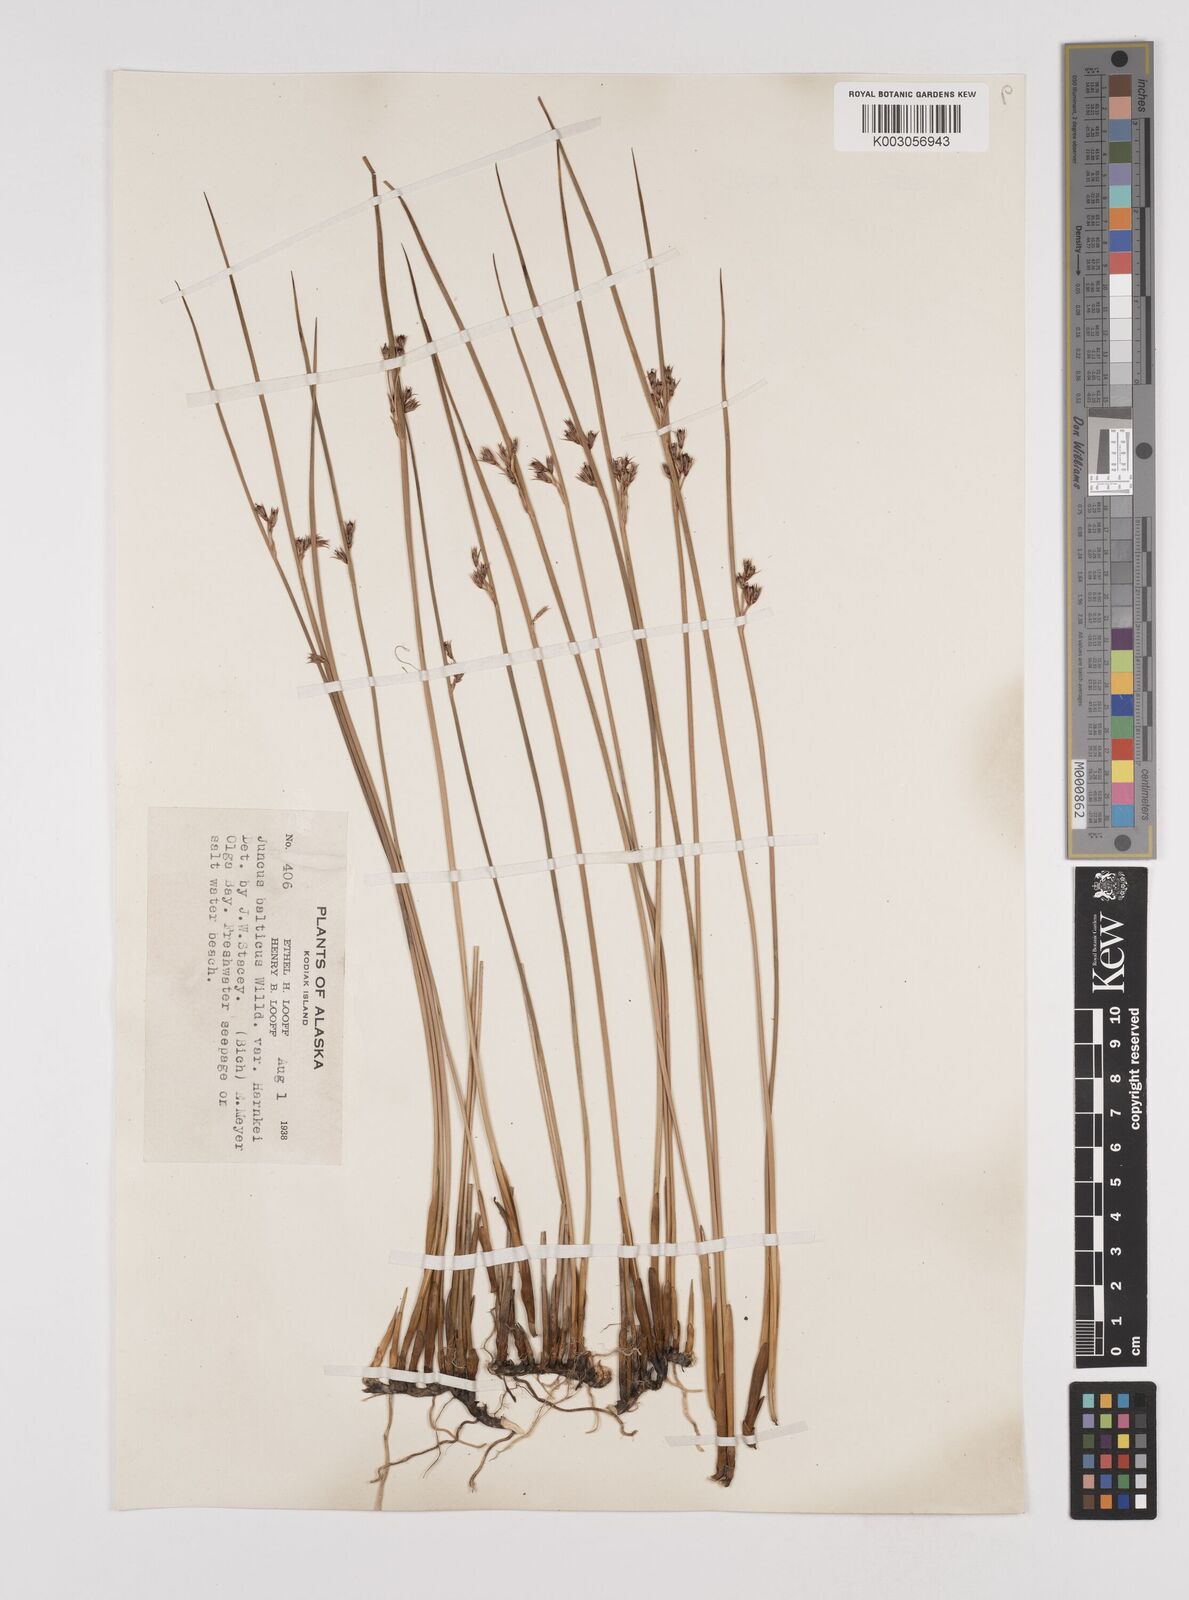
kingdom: Plantae
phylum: Tracheophyta
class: Liliopsida
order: Poales
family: Juncaceae
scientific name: Juncaceae
